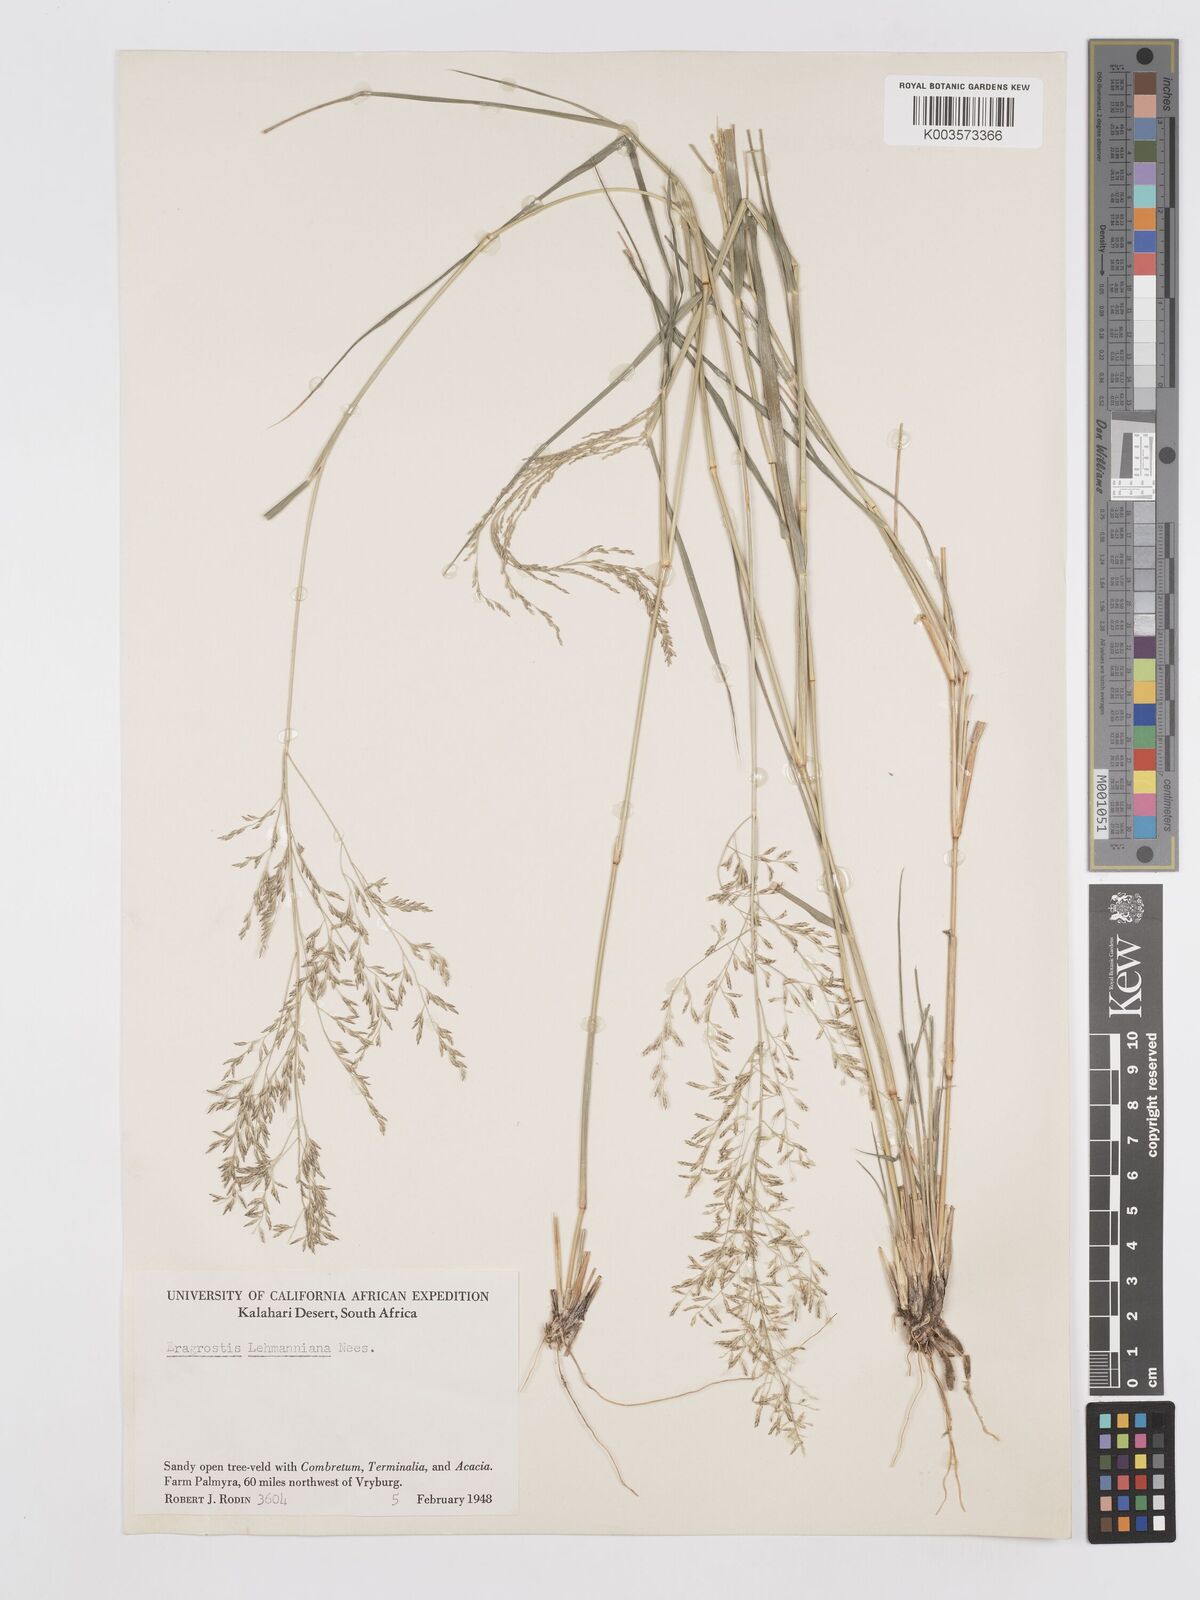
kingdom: Plantae
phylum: Tracheophyta
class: Liliopsida
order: Poales
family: Poaceae
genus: Eragrostis
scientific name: Eragrostis lehmanniana
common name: Lehmann lovegrass
